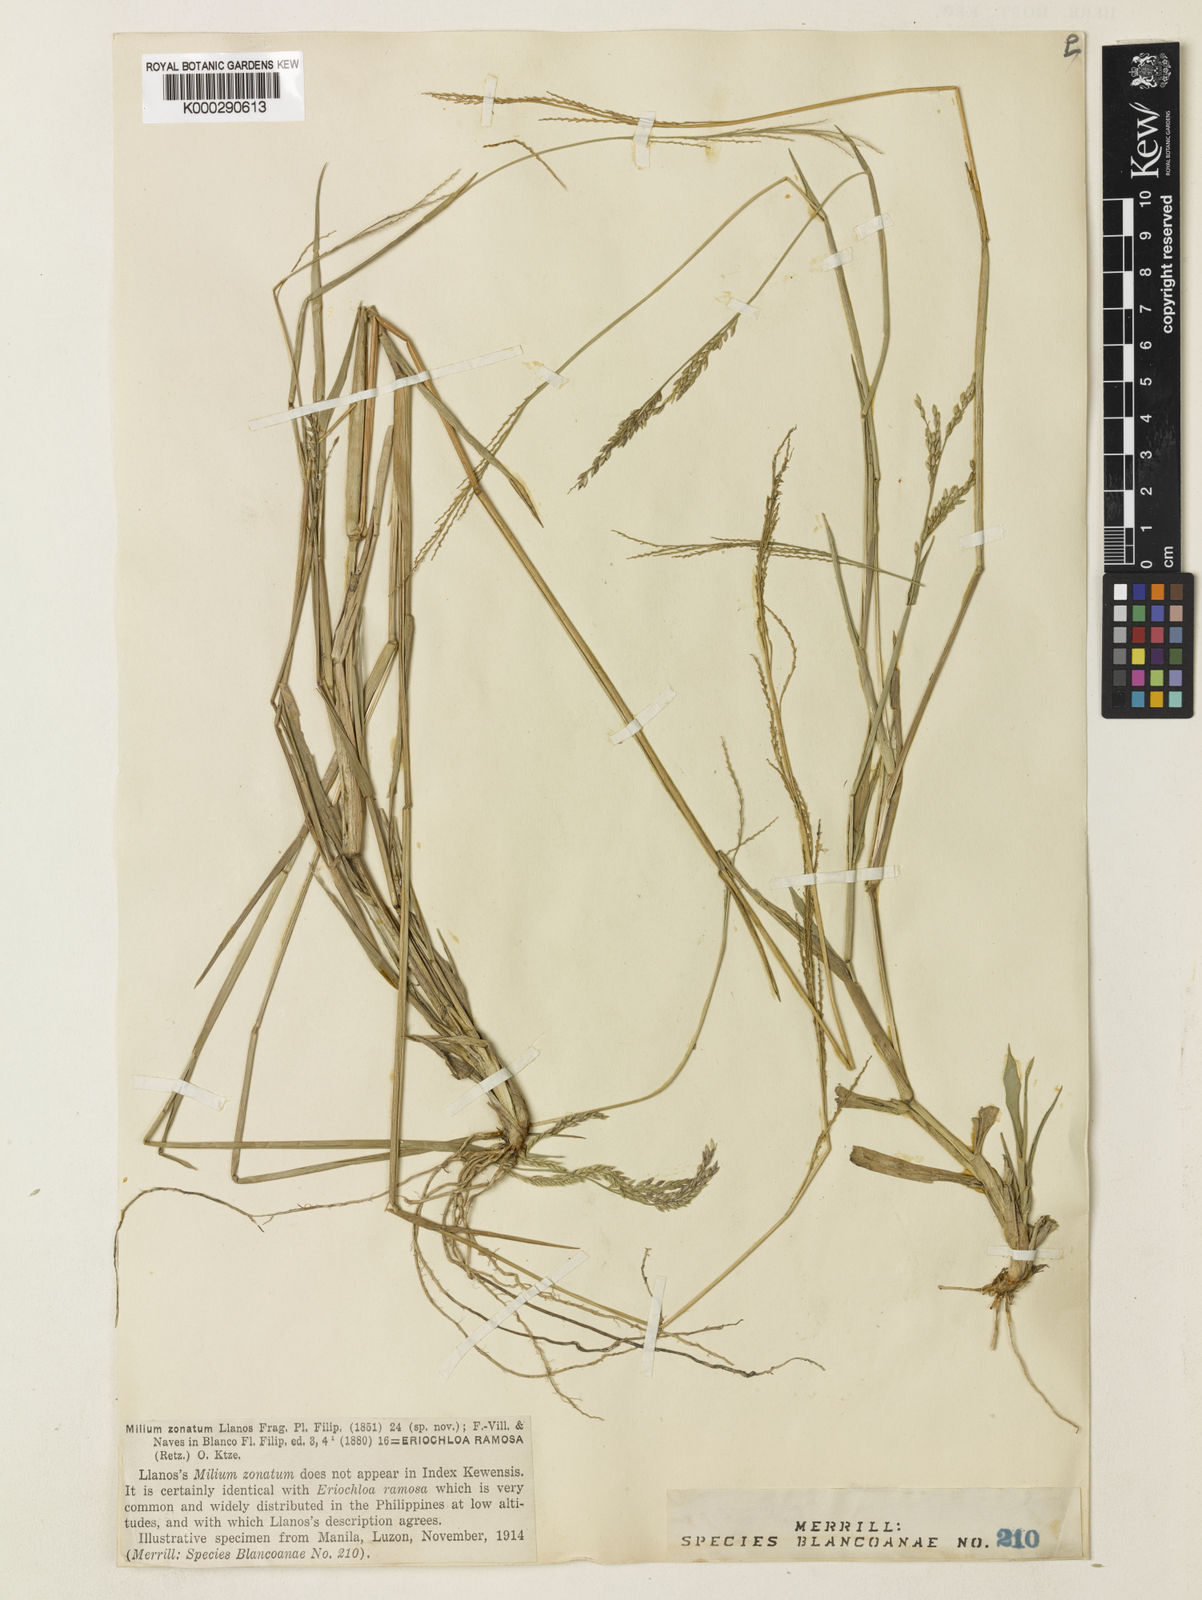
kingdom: Plantae
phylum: Tracheophyta
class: Liliopsida
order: Poales
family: Poaceae
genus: Eriochloa
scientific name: Eriochloa procera
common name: Spring grass
